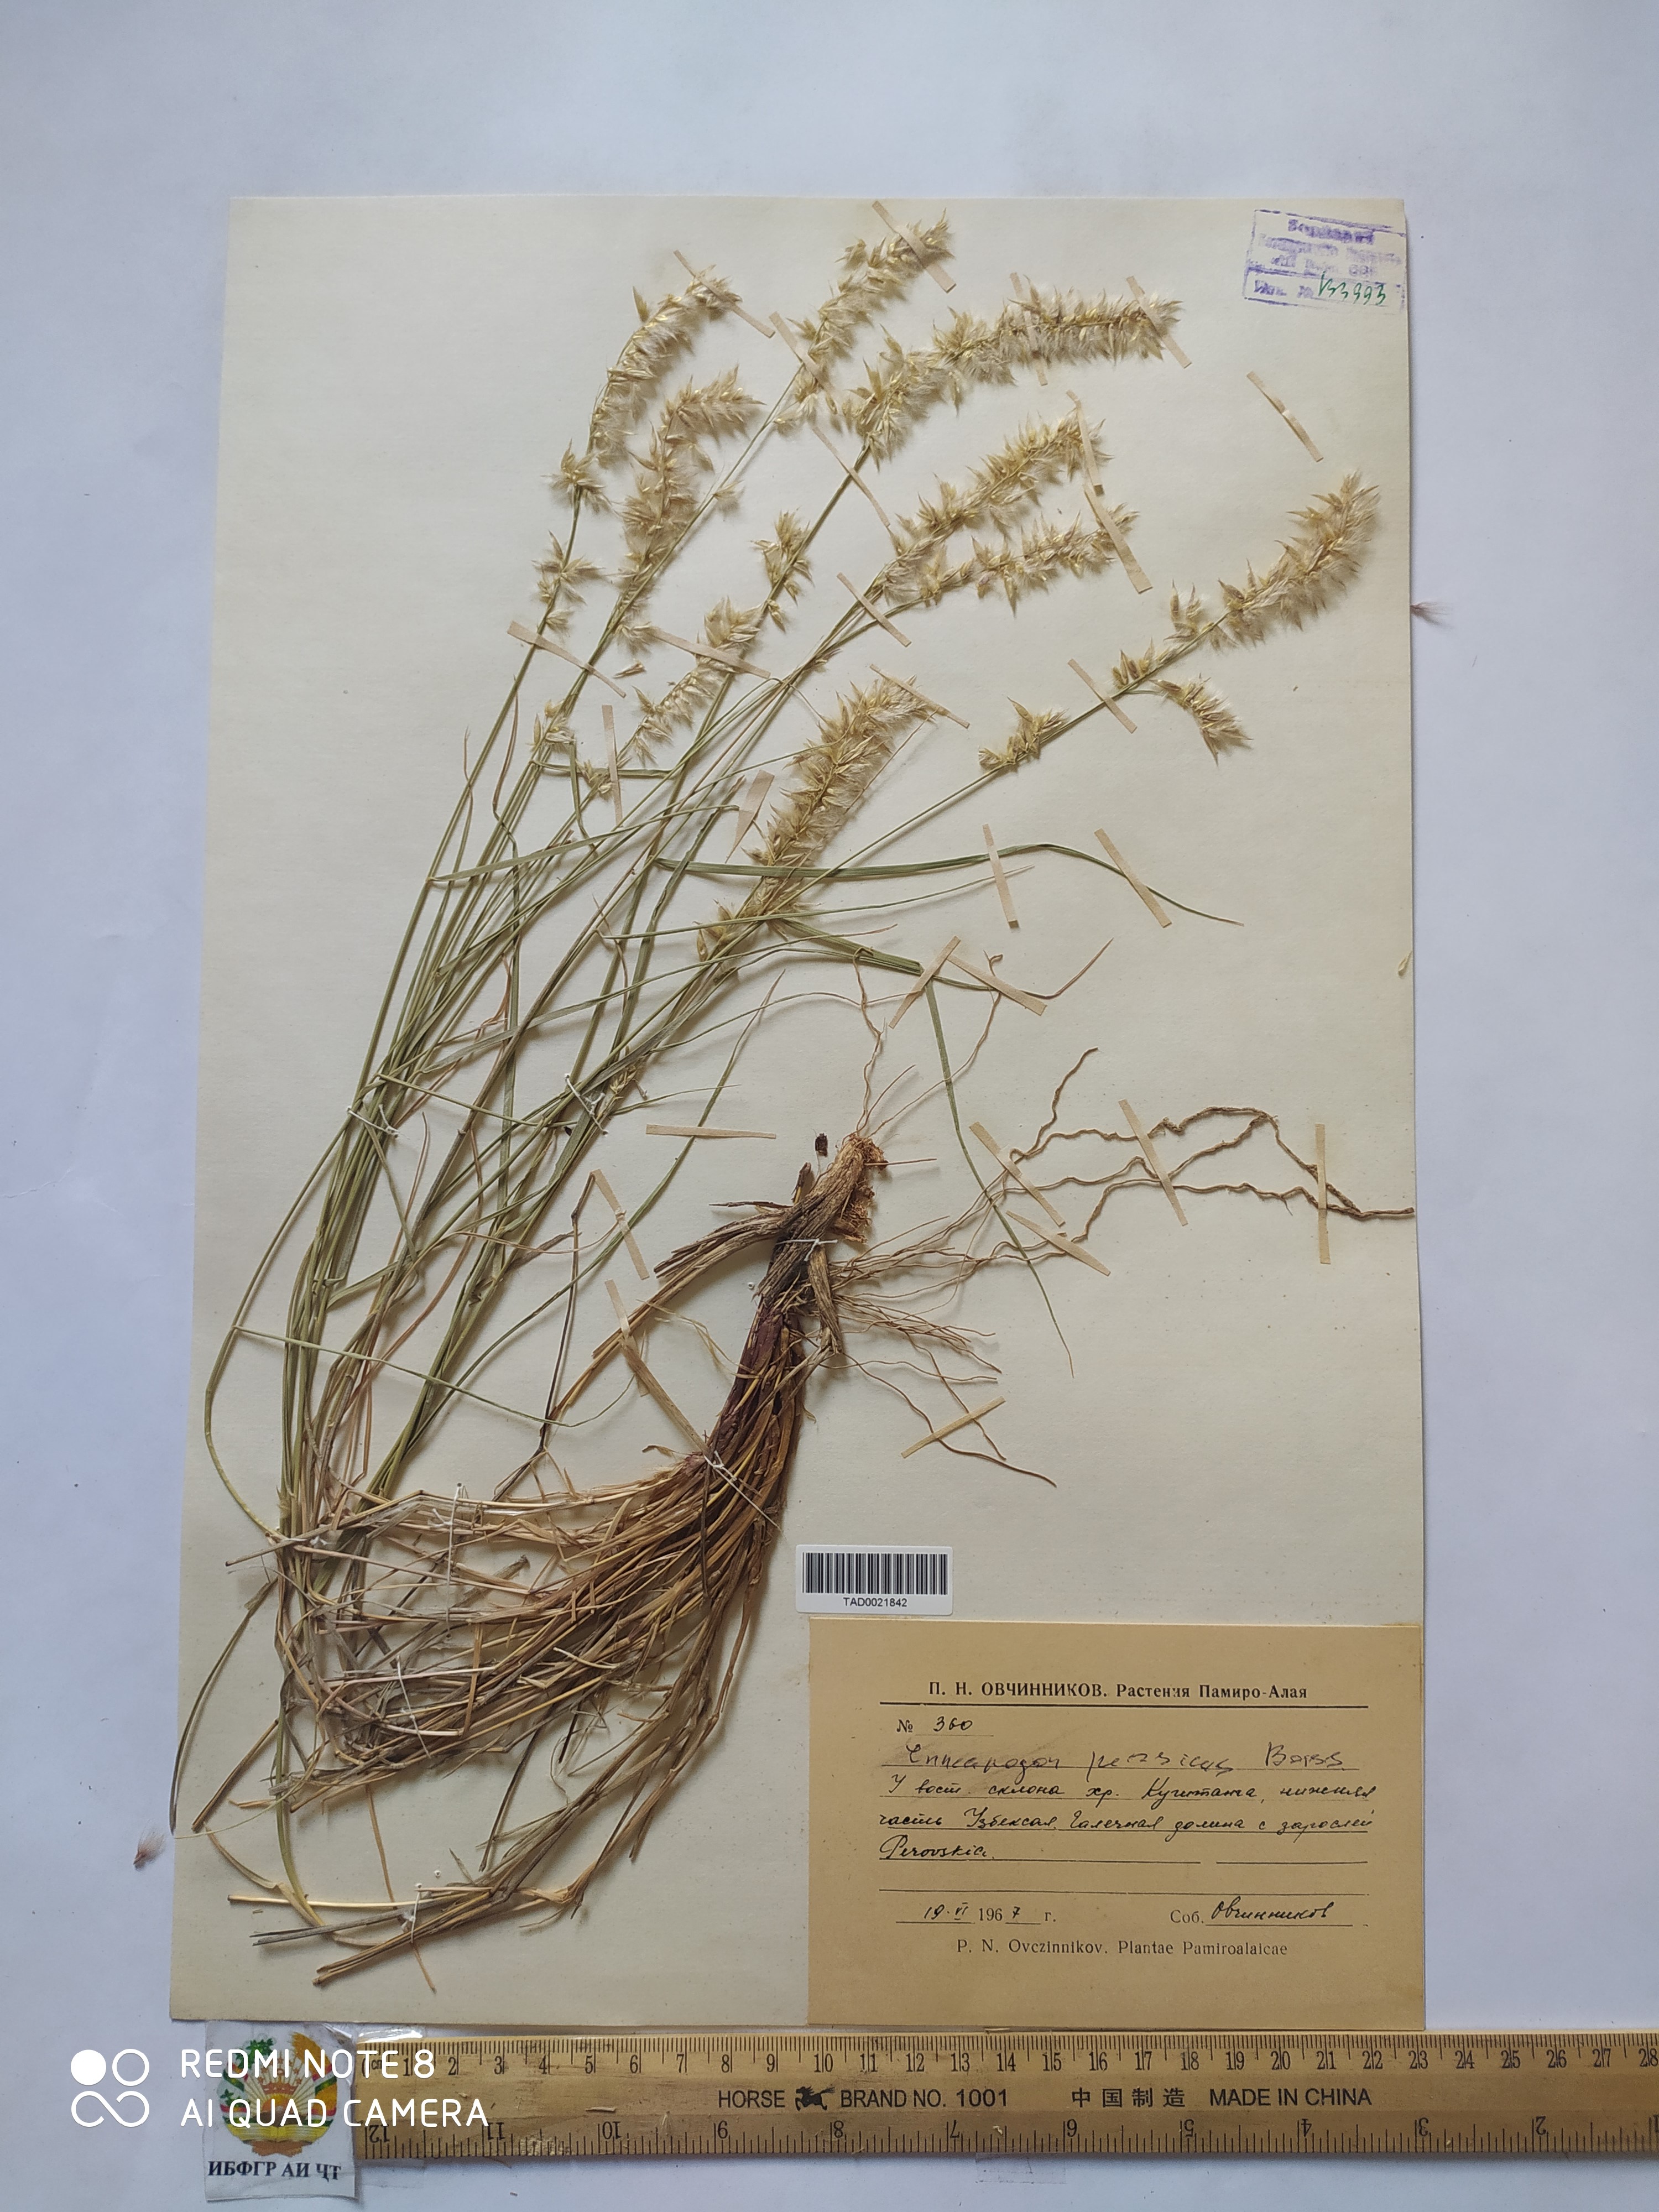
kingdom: Plantae
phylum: Tracheophyta
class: Liliopsida
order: Poales
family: Poaceae
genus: Enneapogon
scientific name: Enneapogon persicus
